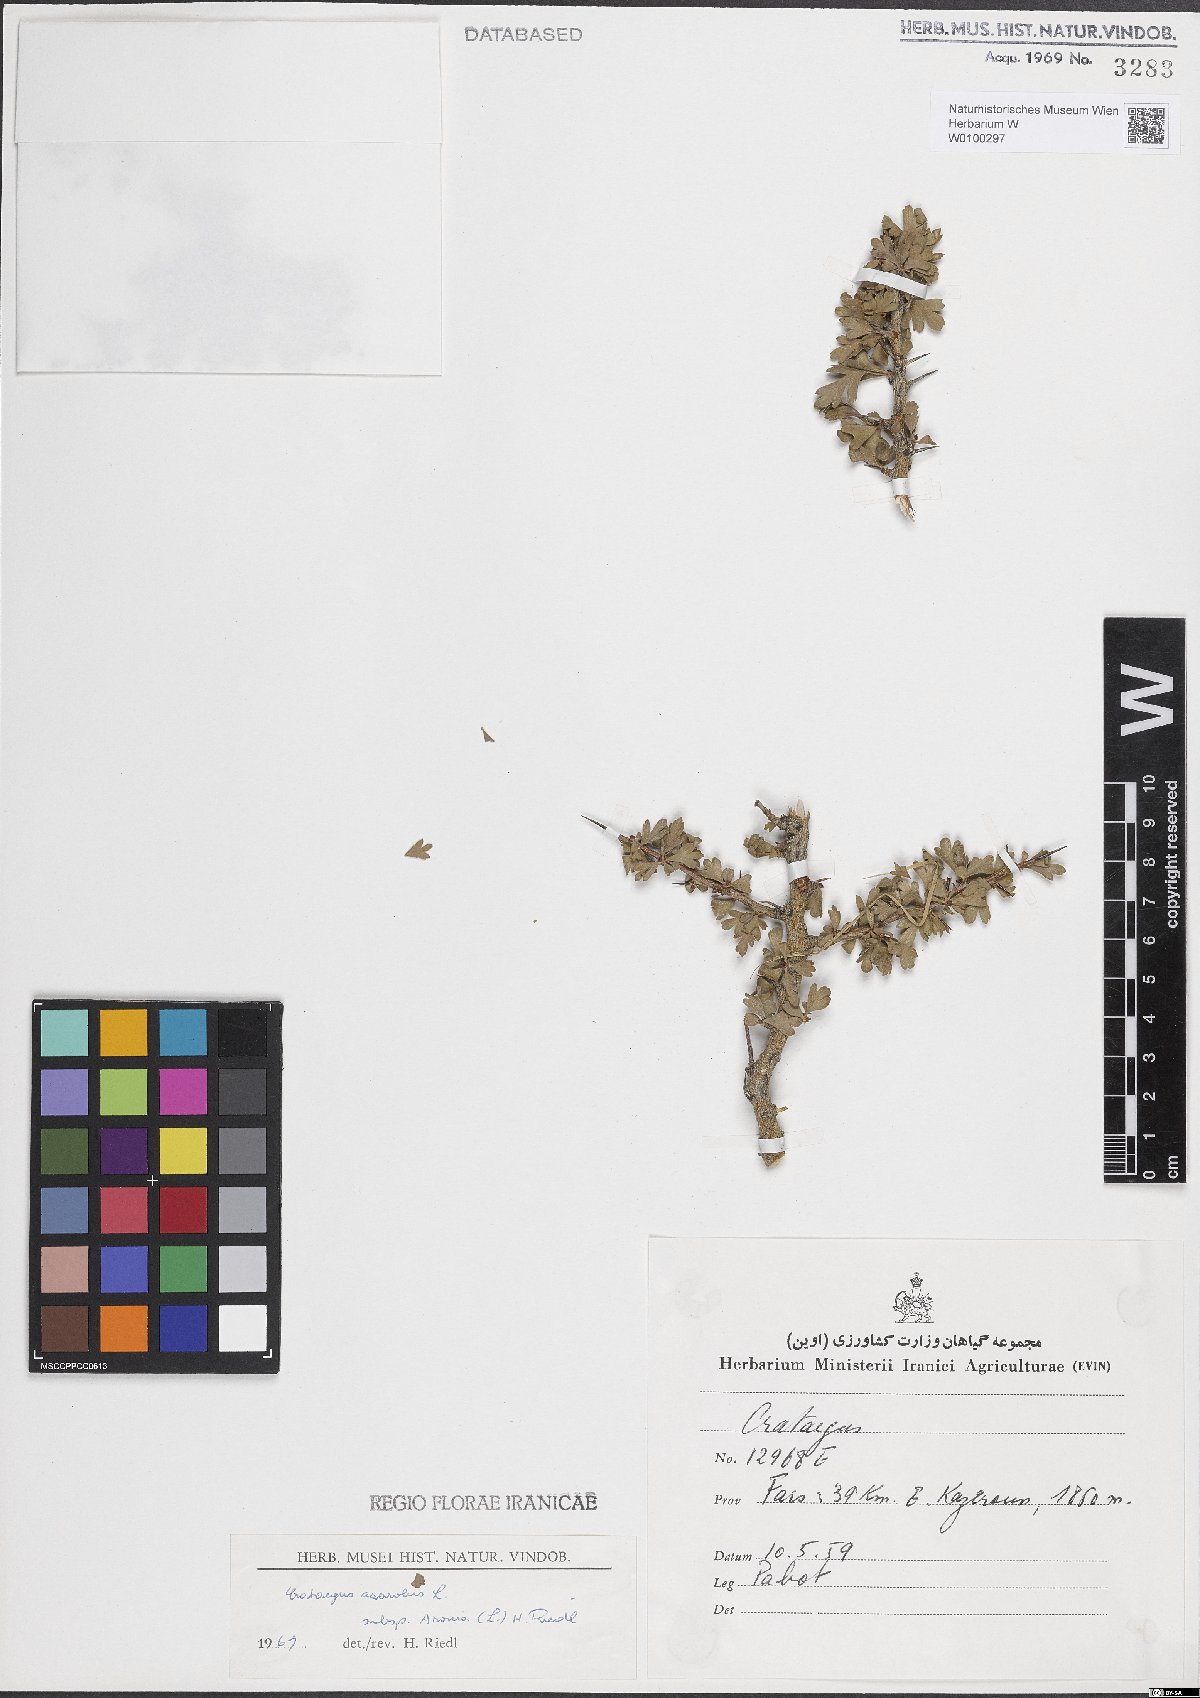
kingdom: Plantae
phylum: Tracheophyta
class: Magnoliopsida
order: Rosales
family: Rosaceae
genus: Crataegus
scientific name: Crataegus azarolus
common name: Azarole
